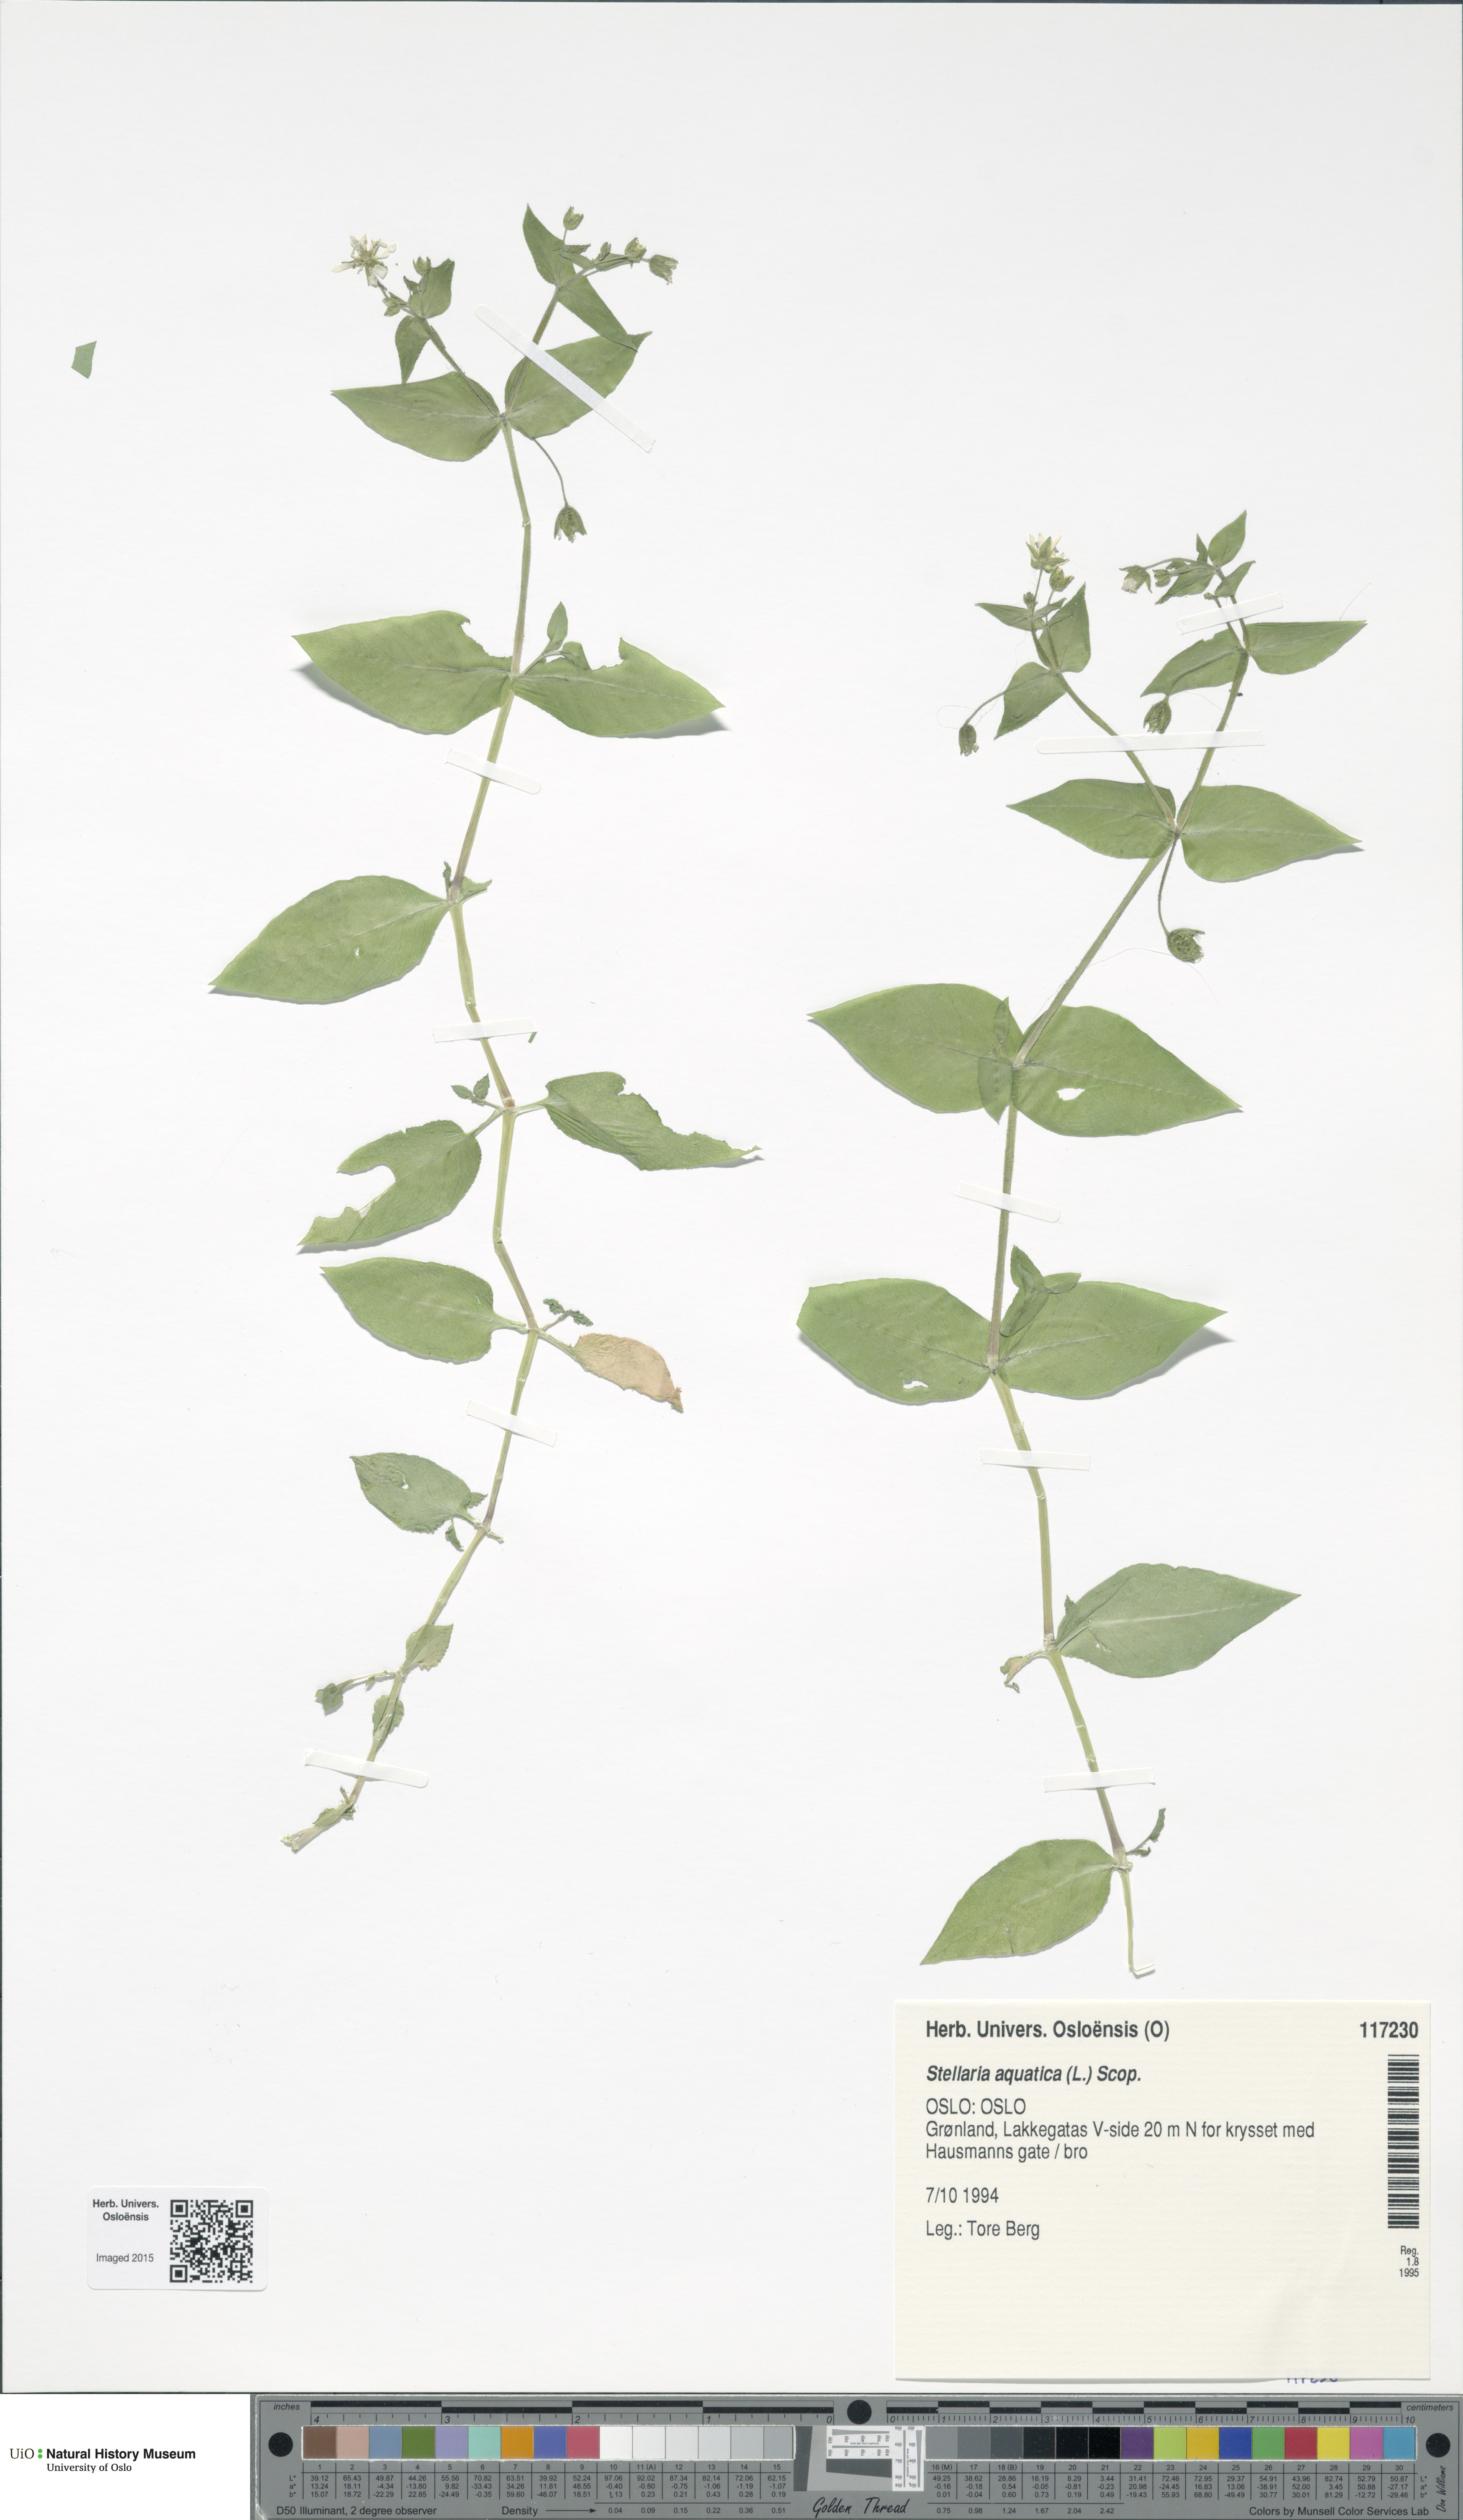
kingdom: Plantae
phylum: Tracheophyta
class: Magnoliopsida
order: Caryophyllales
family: Caryophyllaceae
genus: Stellaria
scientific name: Stellaria aquatica
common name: Water chickweed
